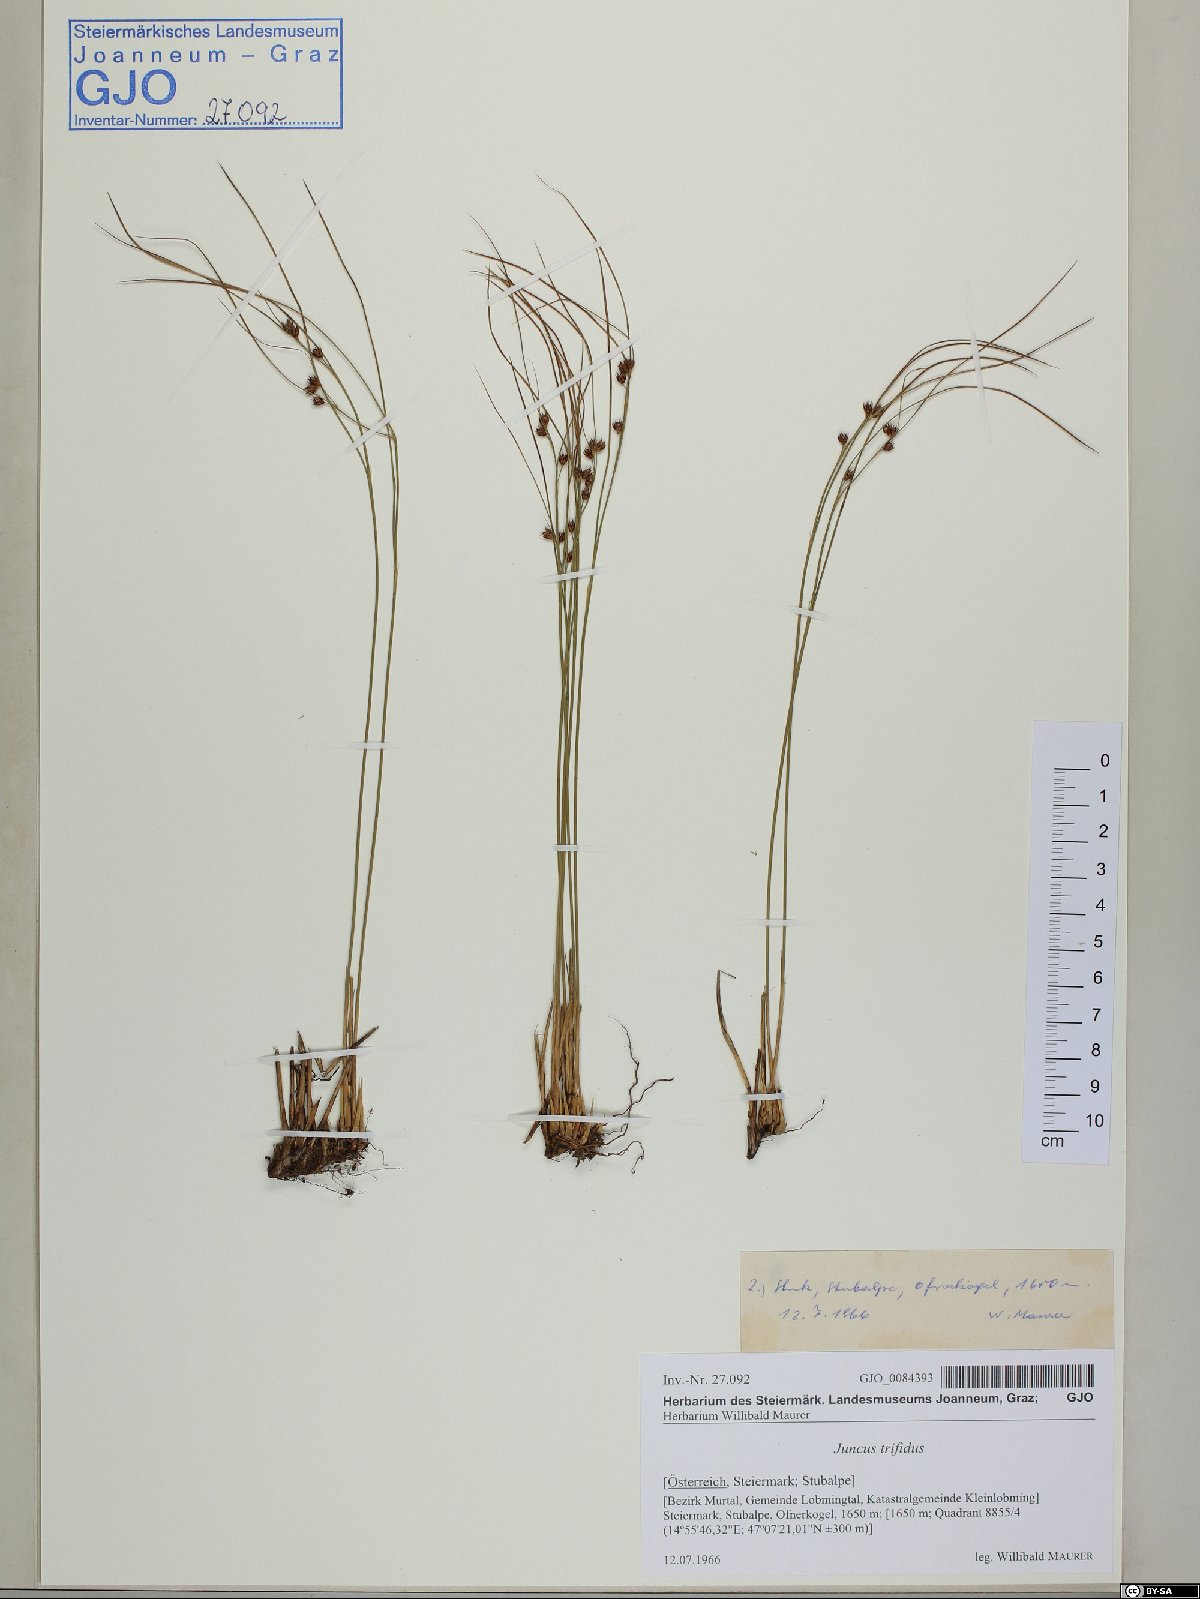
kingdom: Plantae
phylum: Tracheophyta
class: Liliopsida
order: Poales
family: Juncaceae
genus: Oreojuncus
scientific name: Oreojuncus trifidus
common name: Highland rush
